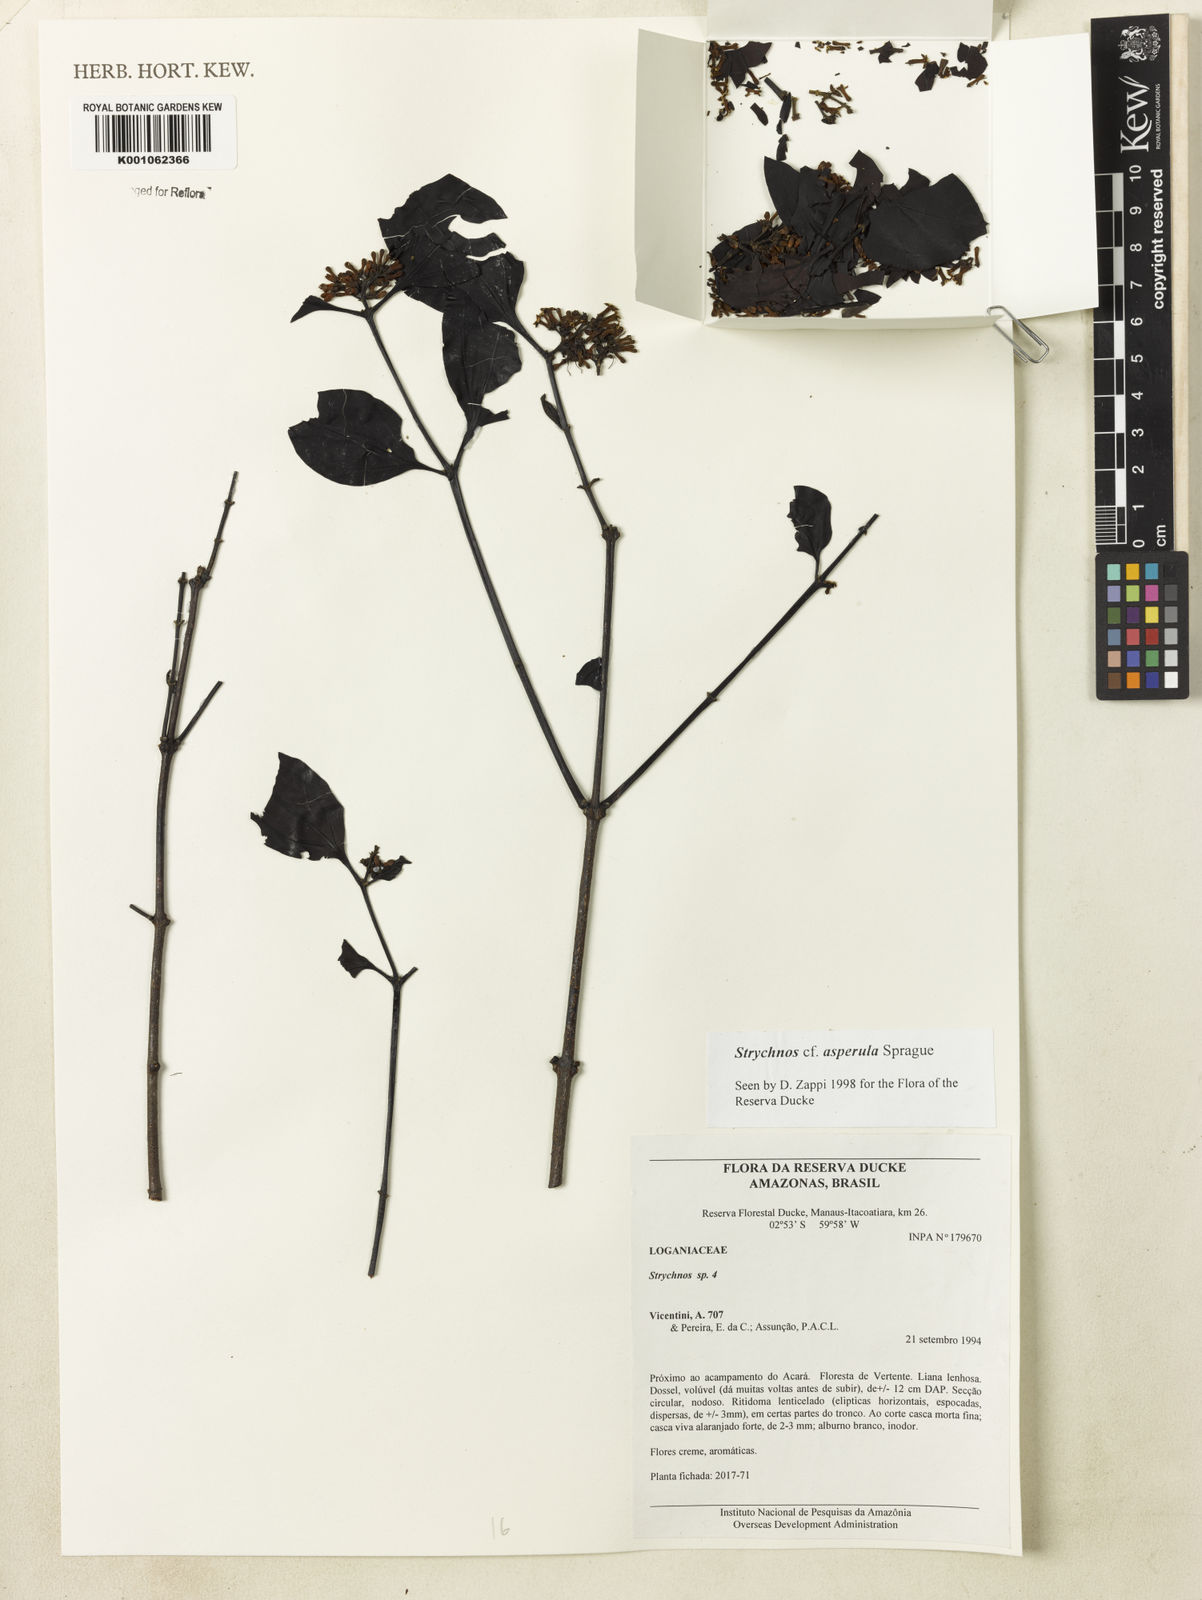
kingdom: Plantae
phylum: Tracheophyta
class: Magnoliopsida
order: Gentianales
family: Loganiaceae
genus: Strychnos
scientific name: Strychnos asperula
